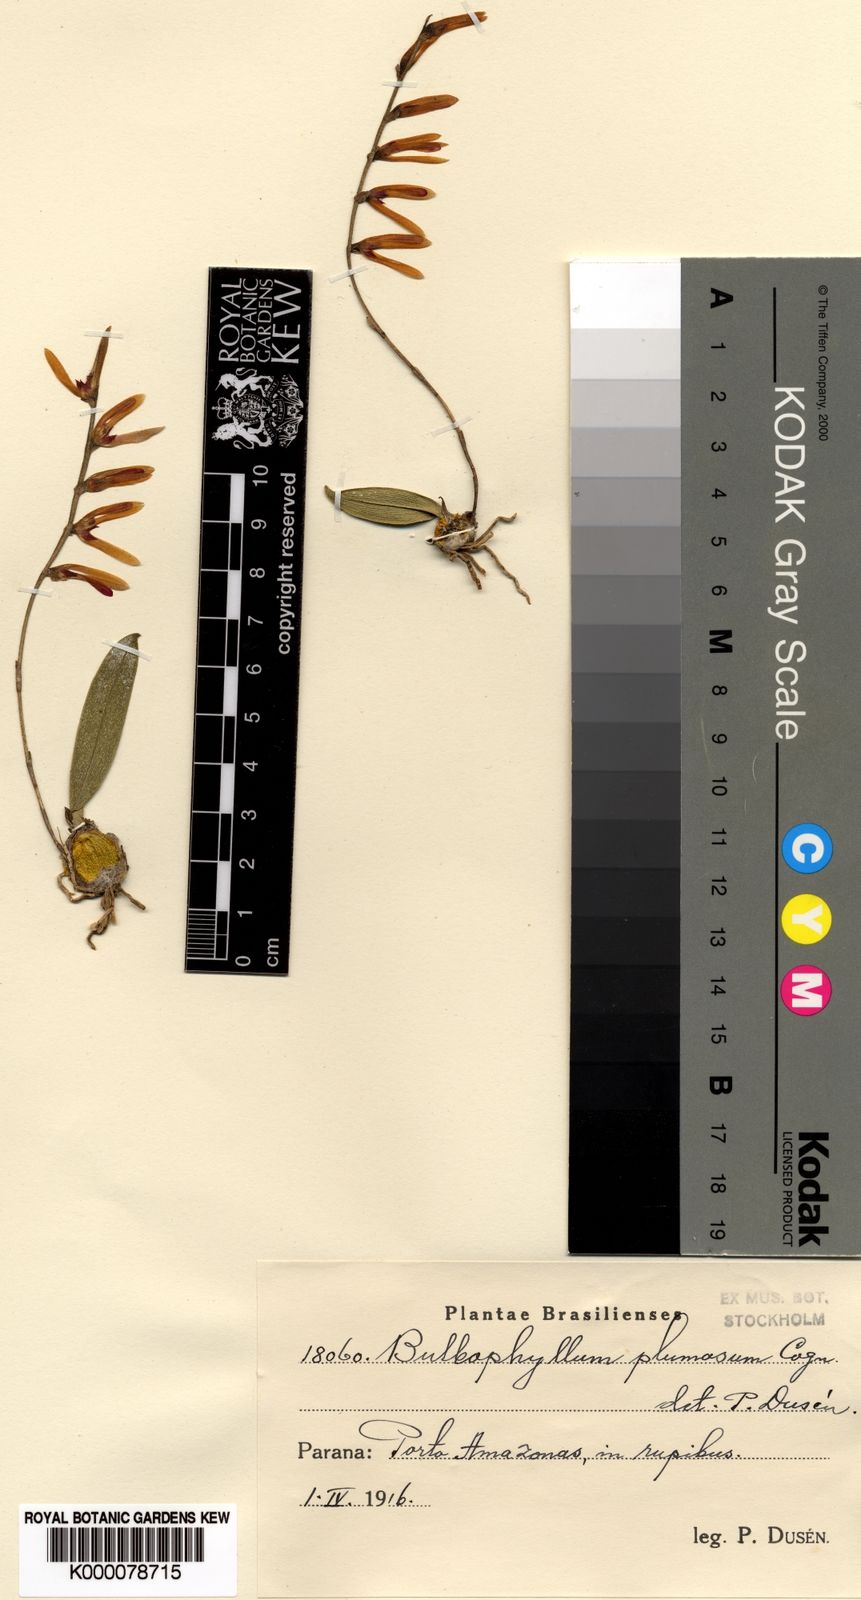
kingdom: Plantae
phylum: Tracheophyta
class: Liliopsida
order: Asparagales
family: Orchidaceae
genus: Bulbophyllum
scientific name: Bulbophyllum
